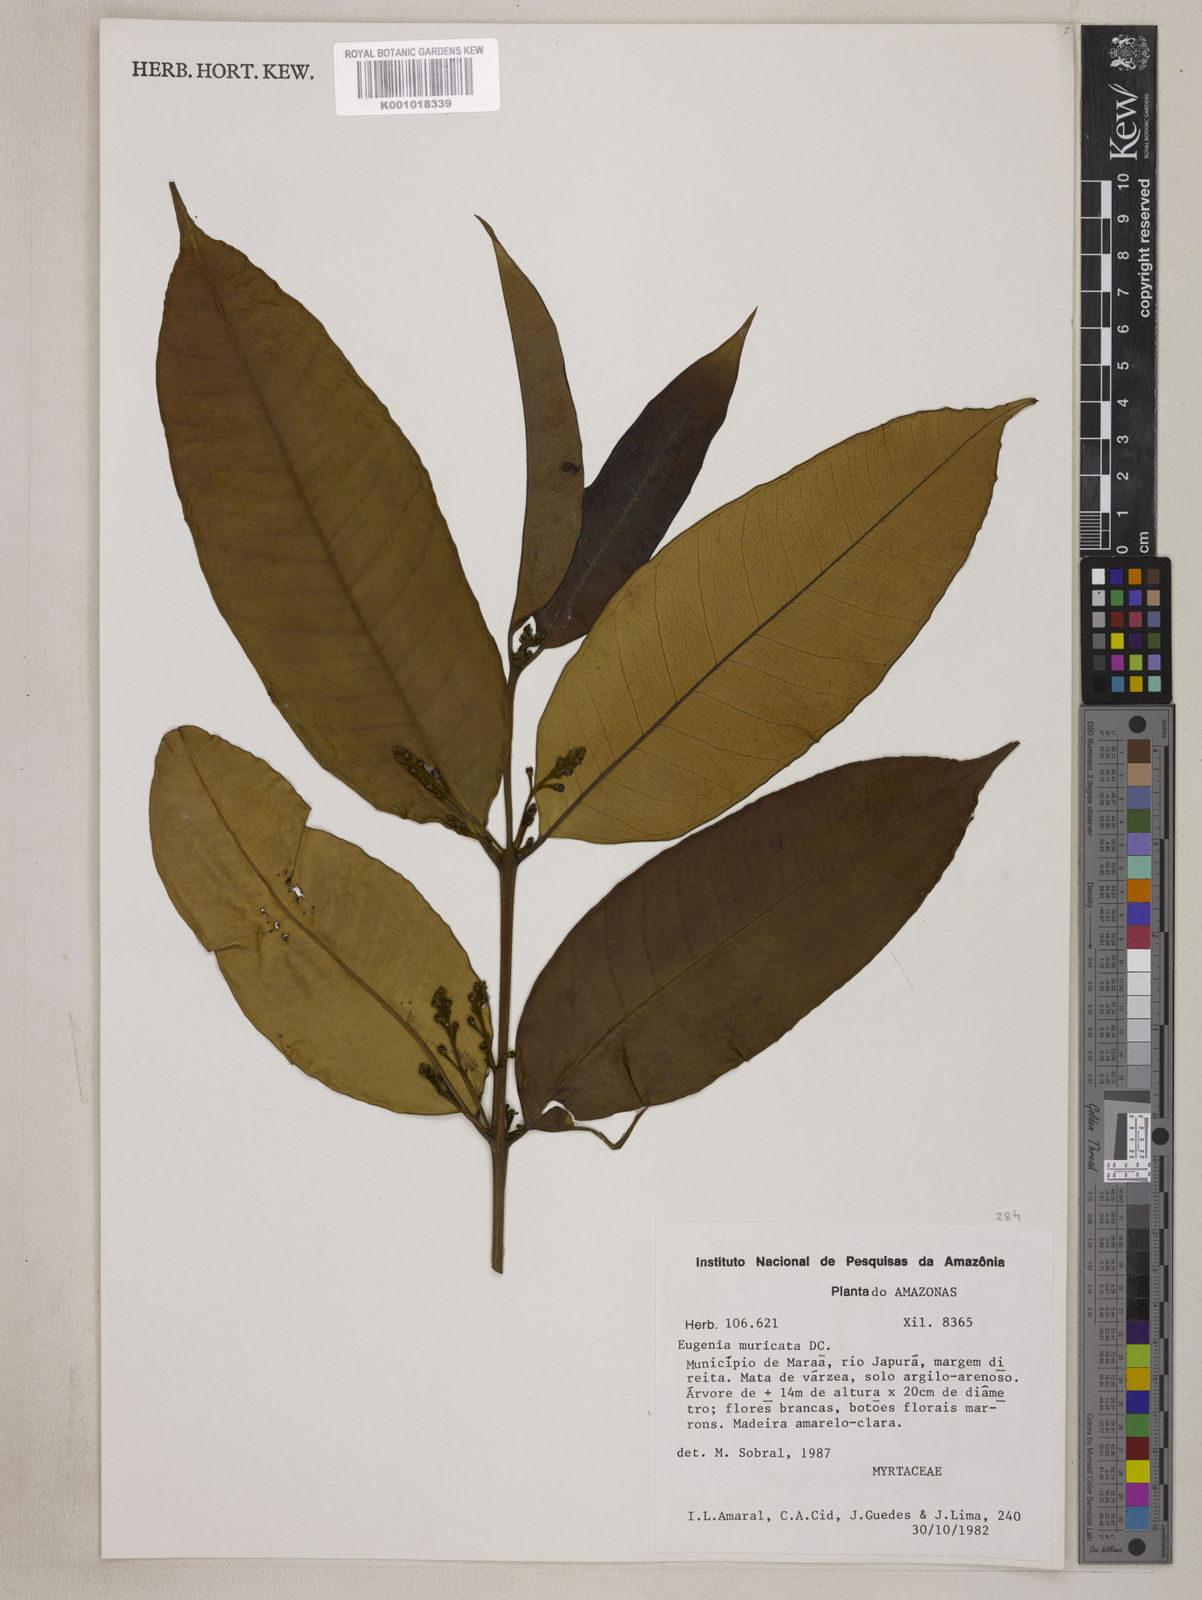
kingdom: Plantae
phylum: Tracheophyta
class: Magnoliopsida
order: Myrtales
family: Myrtaceae
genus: Eugenia
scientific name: Eugenia muricata
